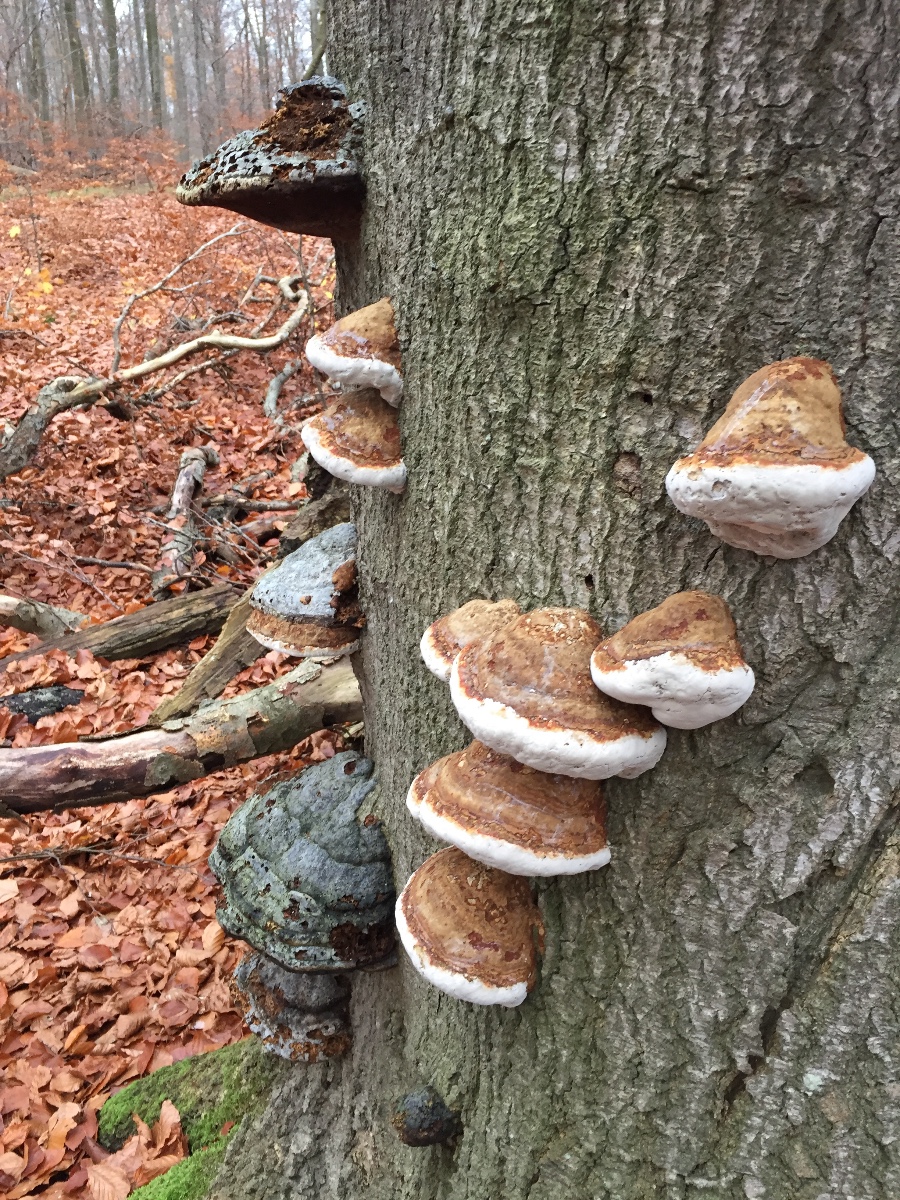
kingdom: Fungi
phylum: Basidiomycota
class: Agaricomycetes
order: Polyporales
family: Polyporaceae
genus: Fomes
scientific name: Fomes fomentarius
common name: tøndersvamp
